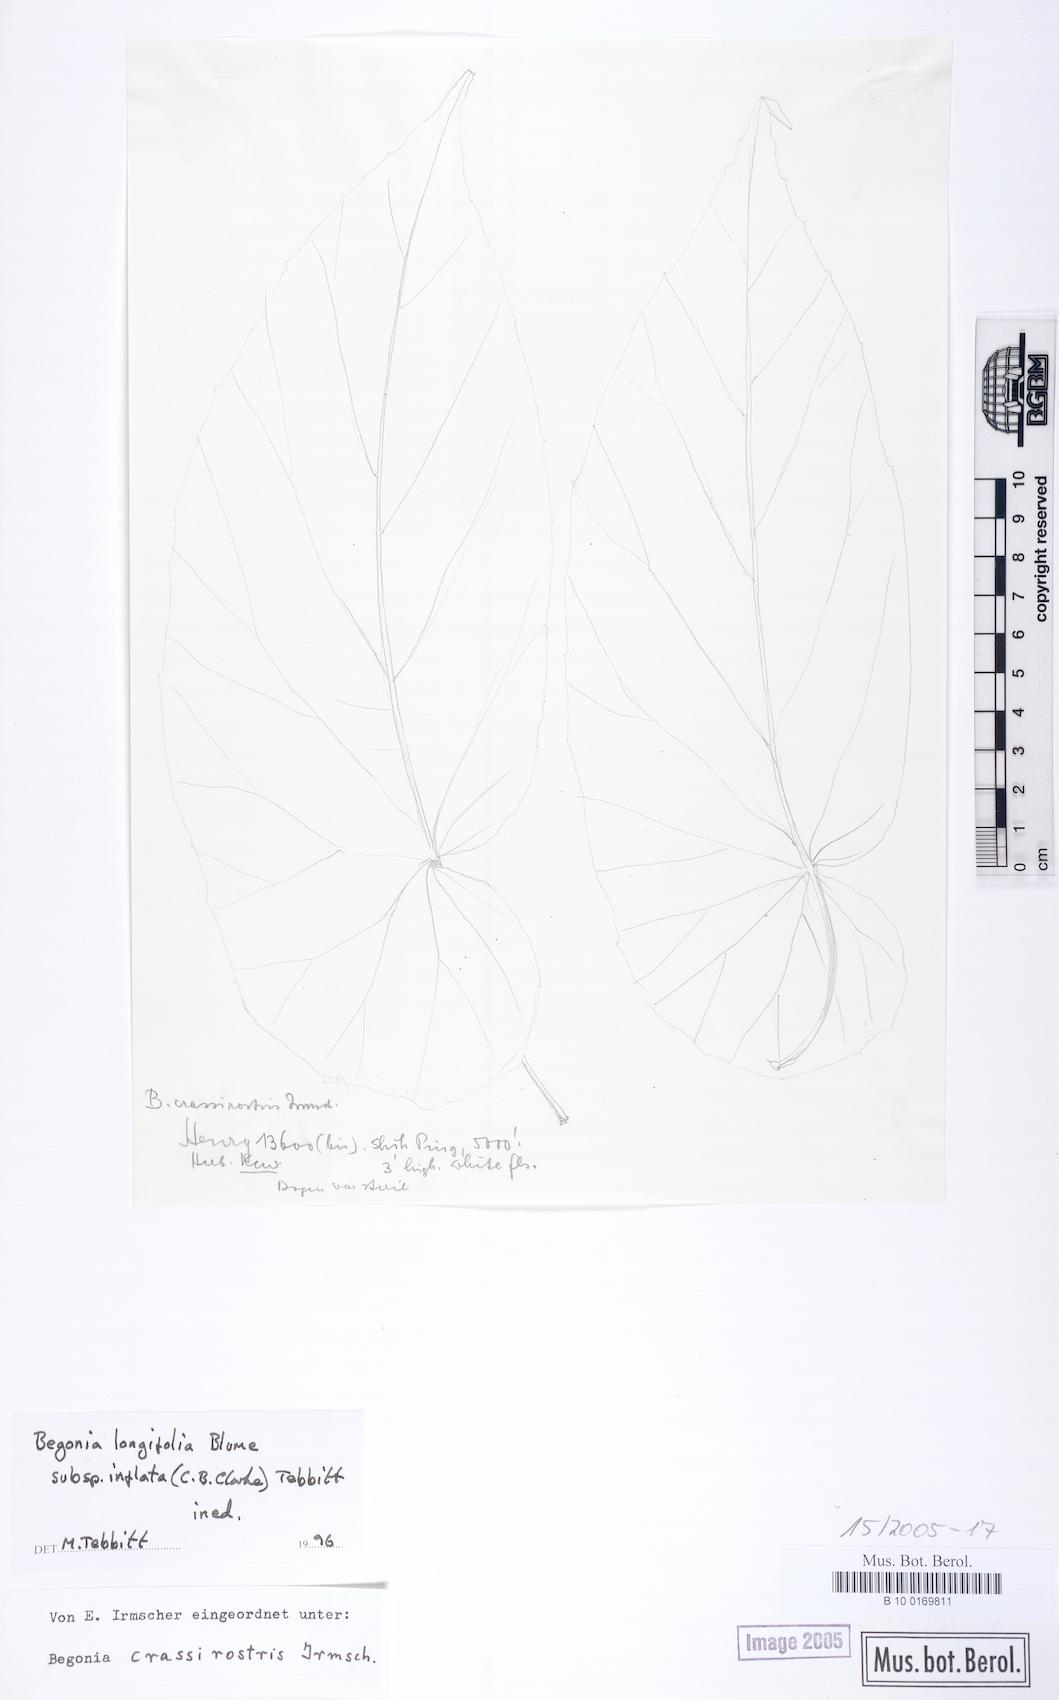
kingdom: Plantae
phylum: Tracheophyta
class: Magnoliopsida
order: Cucurbitales
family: Begoniaceae
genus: Begonia
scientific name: Begonia longifolia
